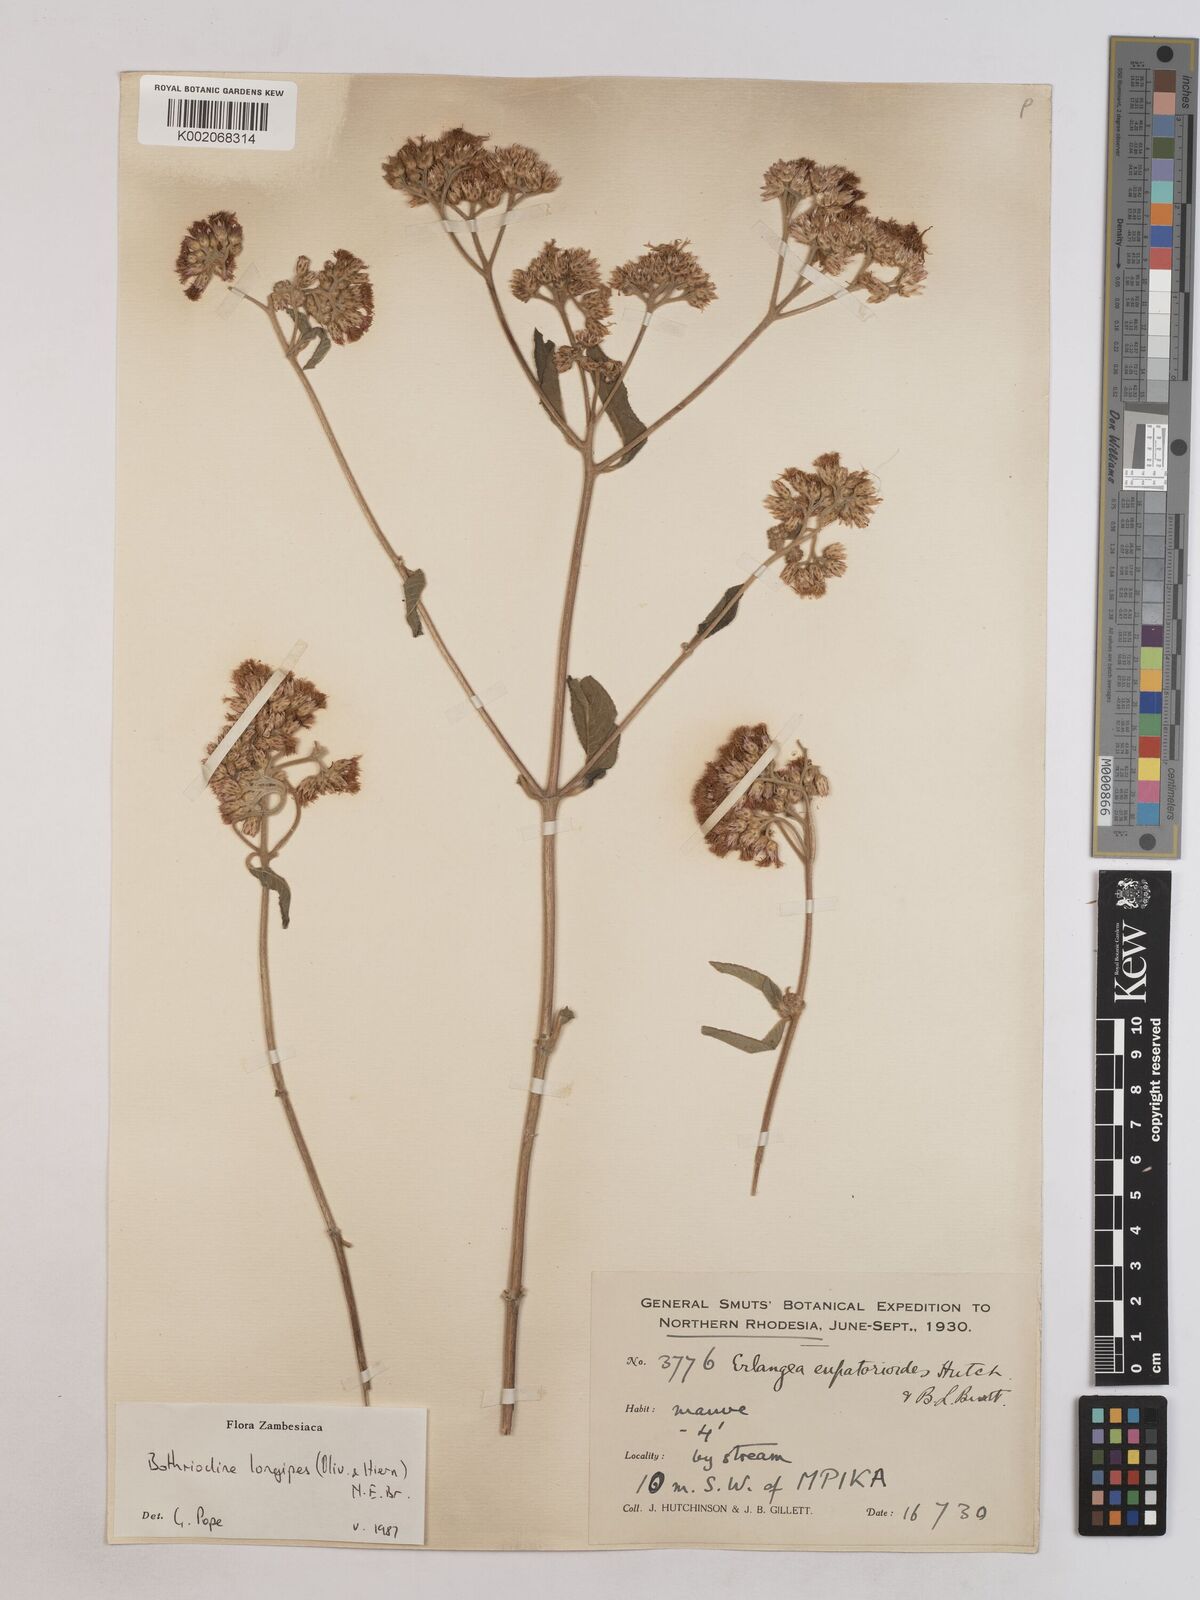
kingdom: Plantae
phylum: Tracheophyta
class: Magnoliopsida
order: Asterales
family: Asteraceae
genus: Bothriocline
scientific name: Bothriocline longipes
